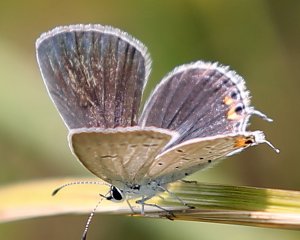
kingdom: Animalia
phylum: Arthropoda
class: Insecta
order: Lepidoptera
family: Lycaenidae
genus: Elkalyce
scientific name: Elkalyce comyntas
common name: Eastern Tailed-Blue
